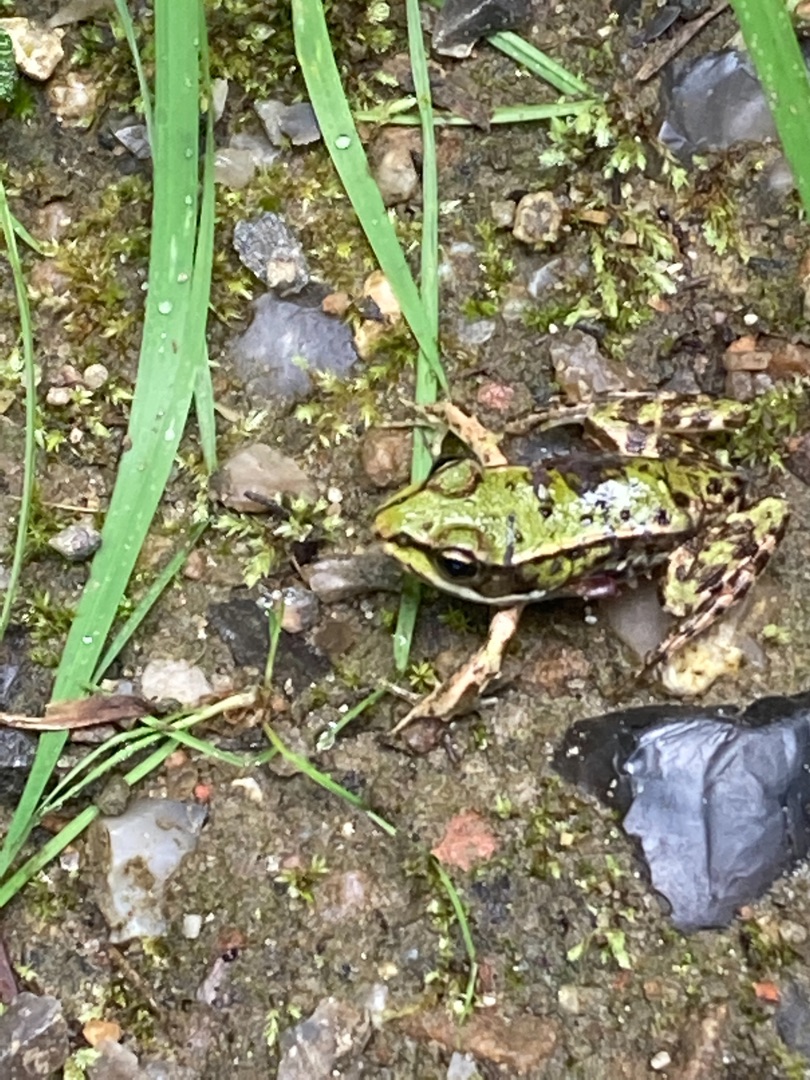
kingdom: Animalia
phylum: Chordata
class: Amphibia
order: Anura
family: Ranidae
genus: Pelophylax
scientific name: Pelophylax lessonae
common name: Grøn frø
